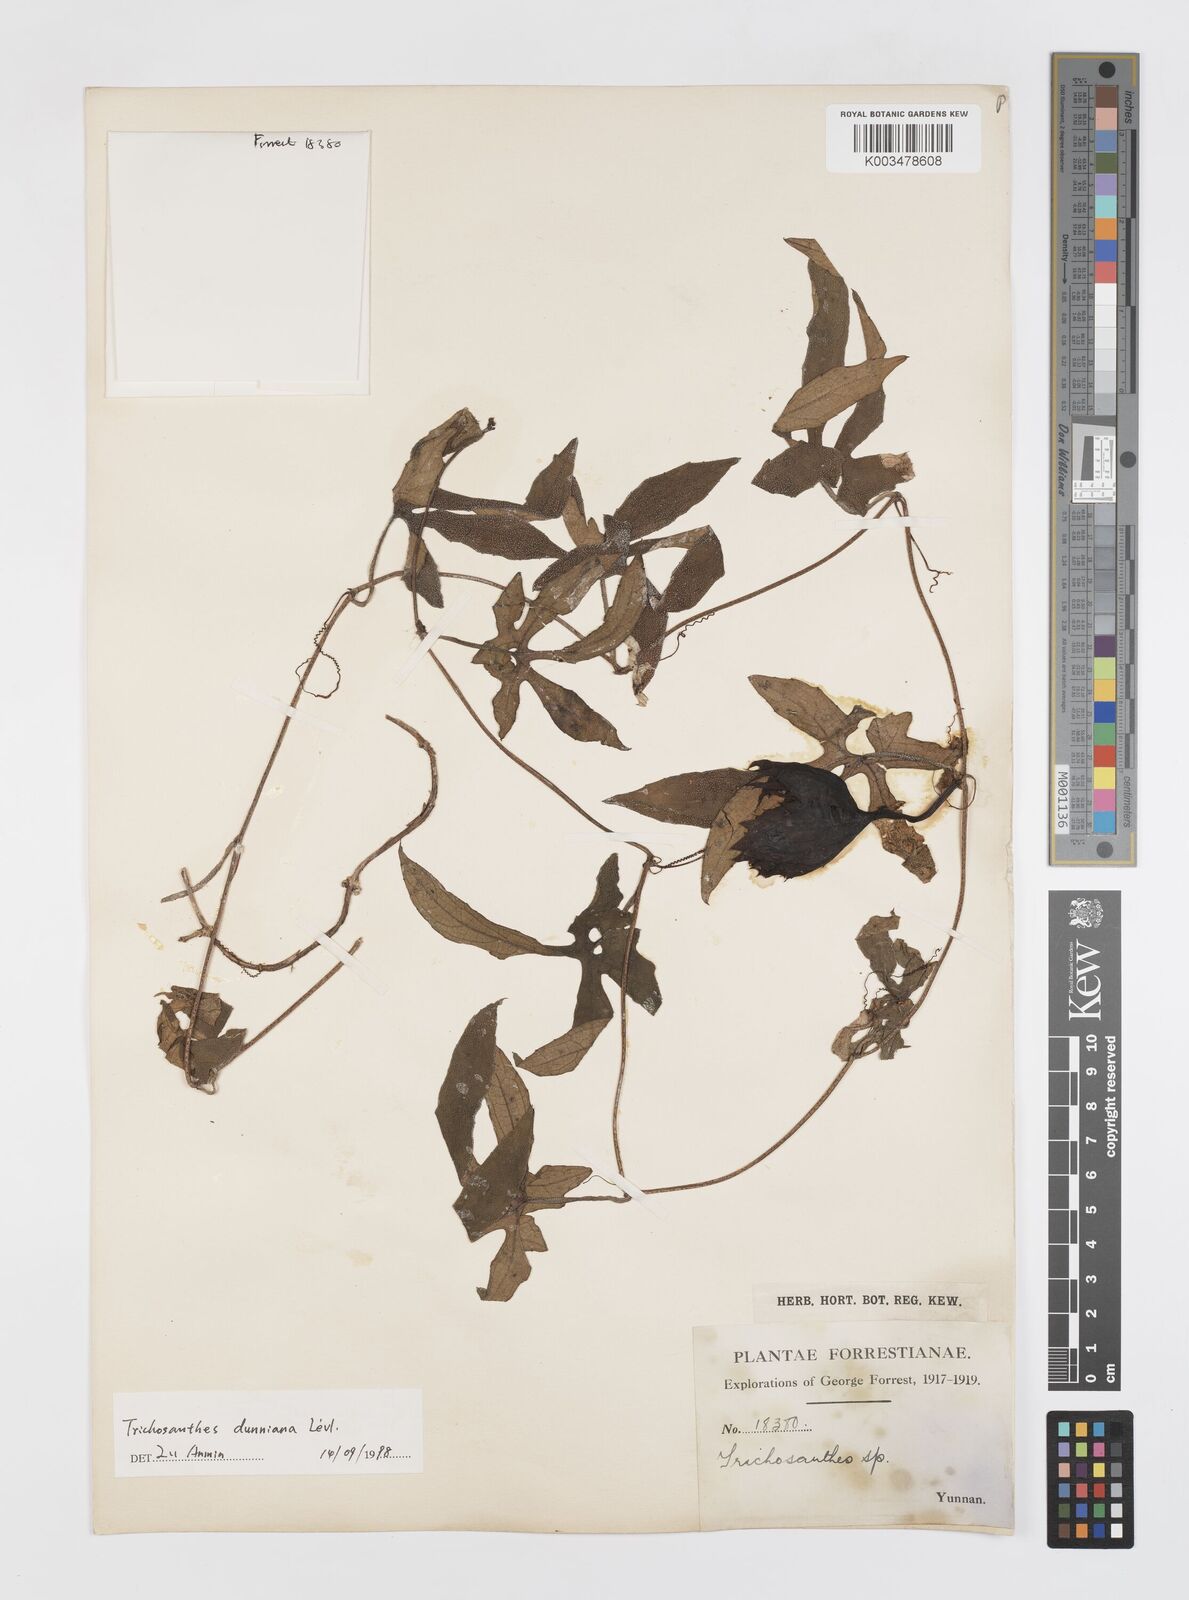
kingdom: Plantae
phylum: Tracheophyta
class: Magnoliopsida
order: Cucurbitales
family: Cucurbitaceae
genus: Trichosanthes
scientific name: Trichosanthes dunniana
